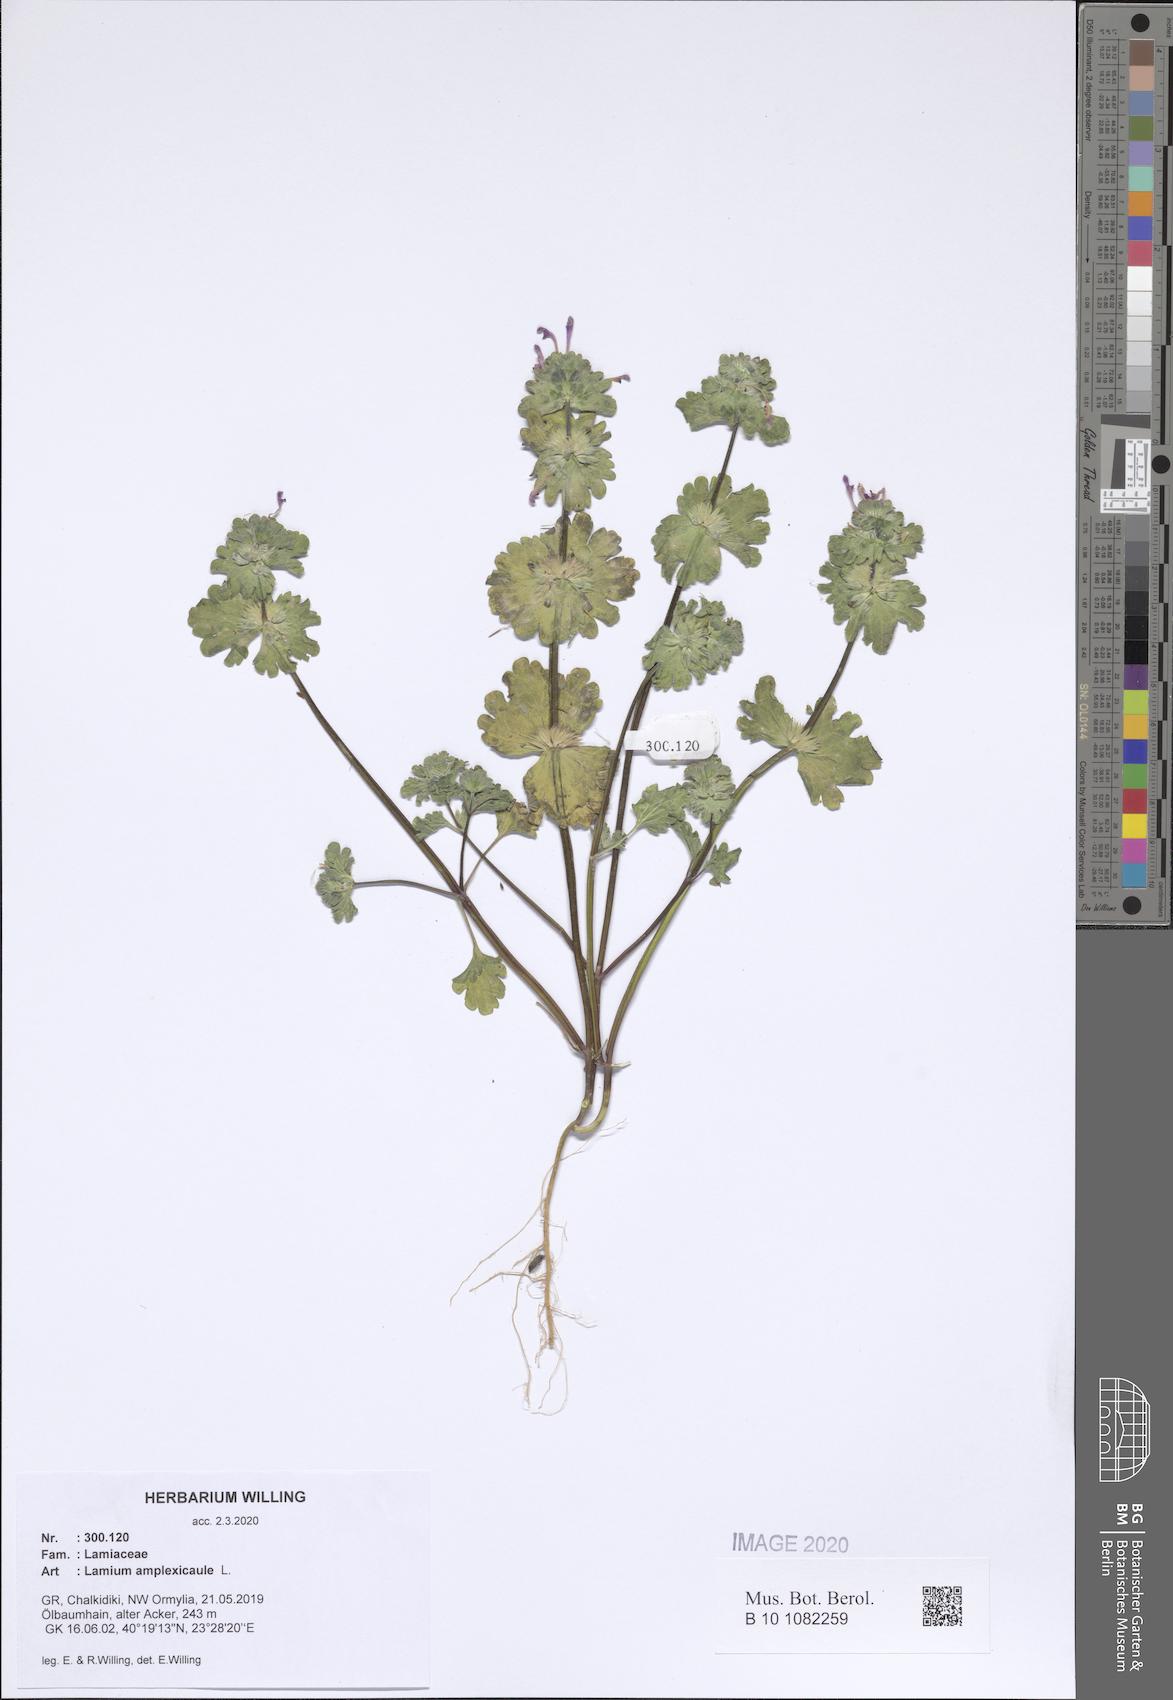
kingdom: Plantae
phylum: Tracheophyta
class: Magnoliopsida
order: Lamiales
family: Lamiaceae
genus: Lamium
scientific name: Lamium amplexicaule
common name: Henbit dead-nettle
